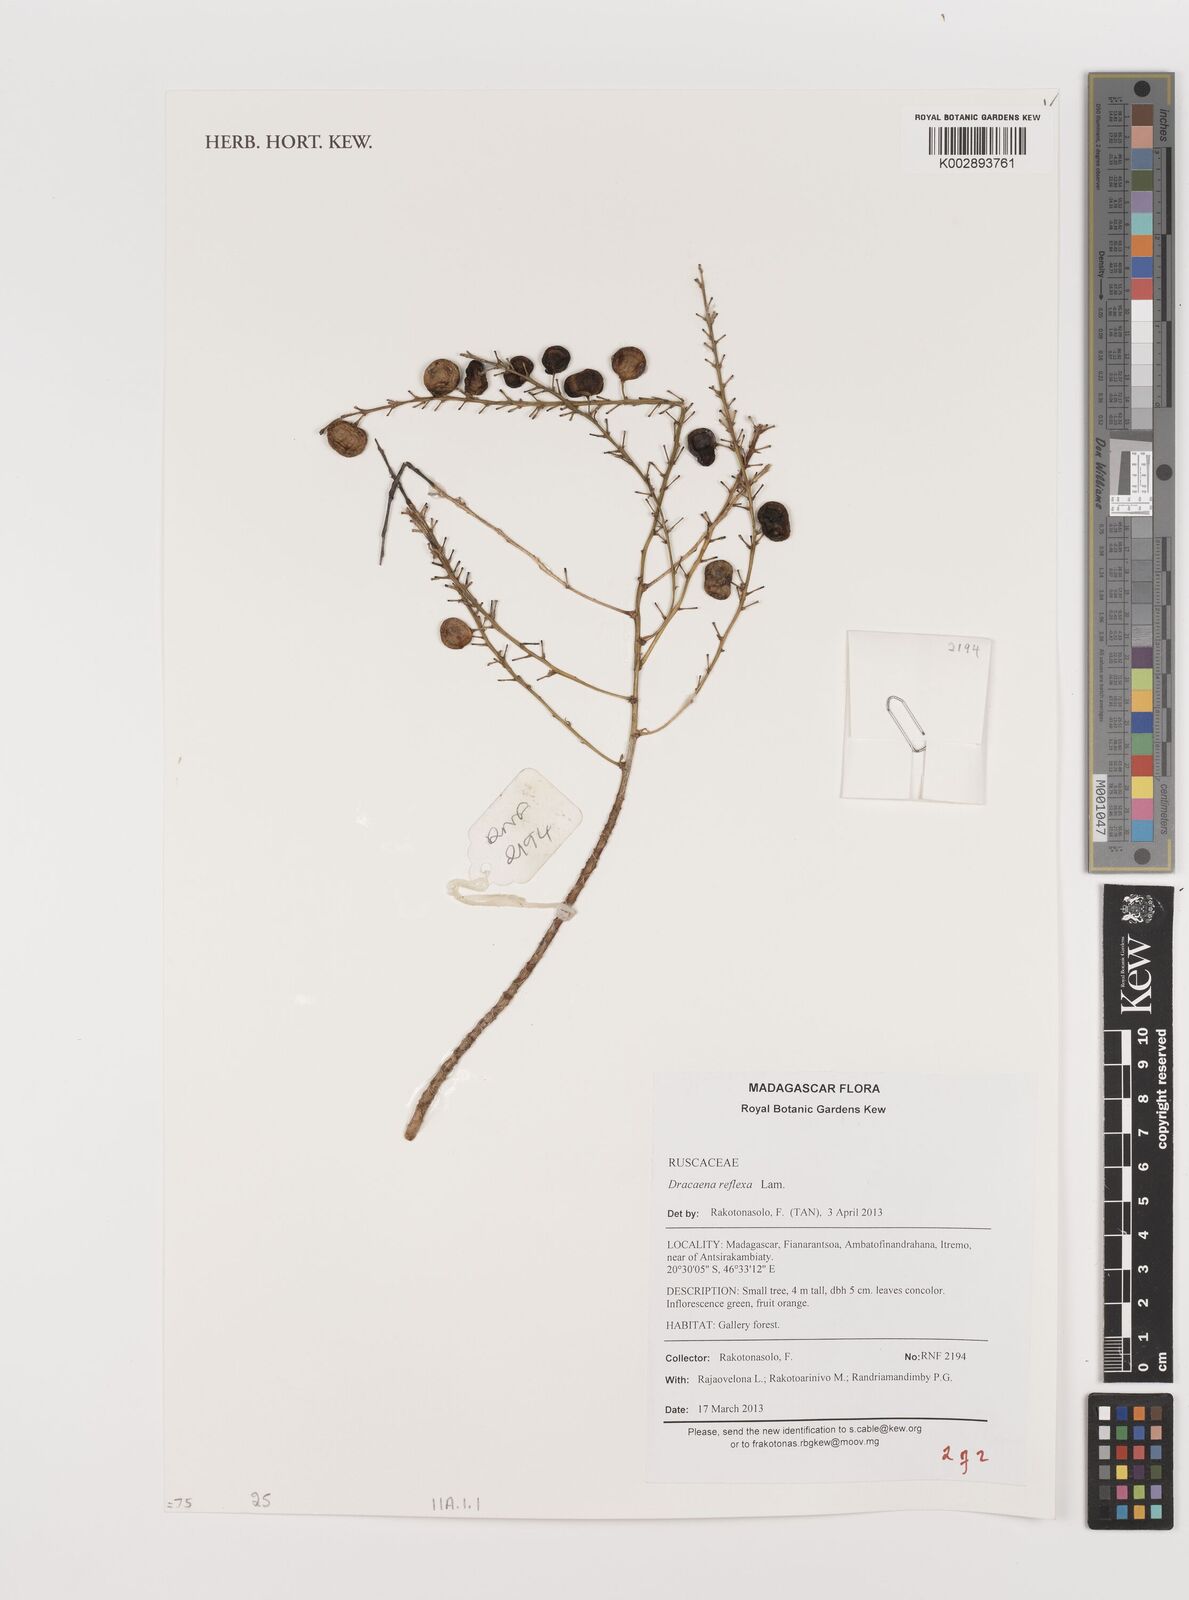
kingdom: Plantae
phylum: Tracheophyta
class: Liliopsida
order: Asparagales
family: Asparagaceae
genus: Dracaena
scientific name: Dracaena reflexa
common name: Song-of-india
